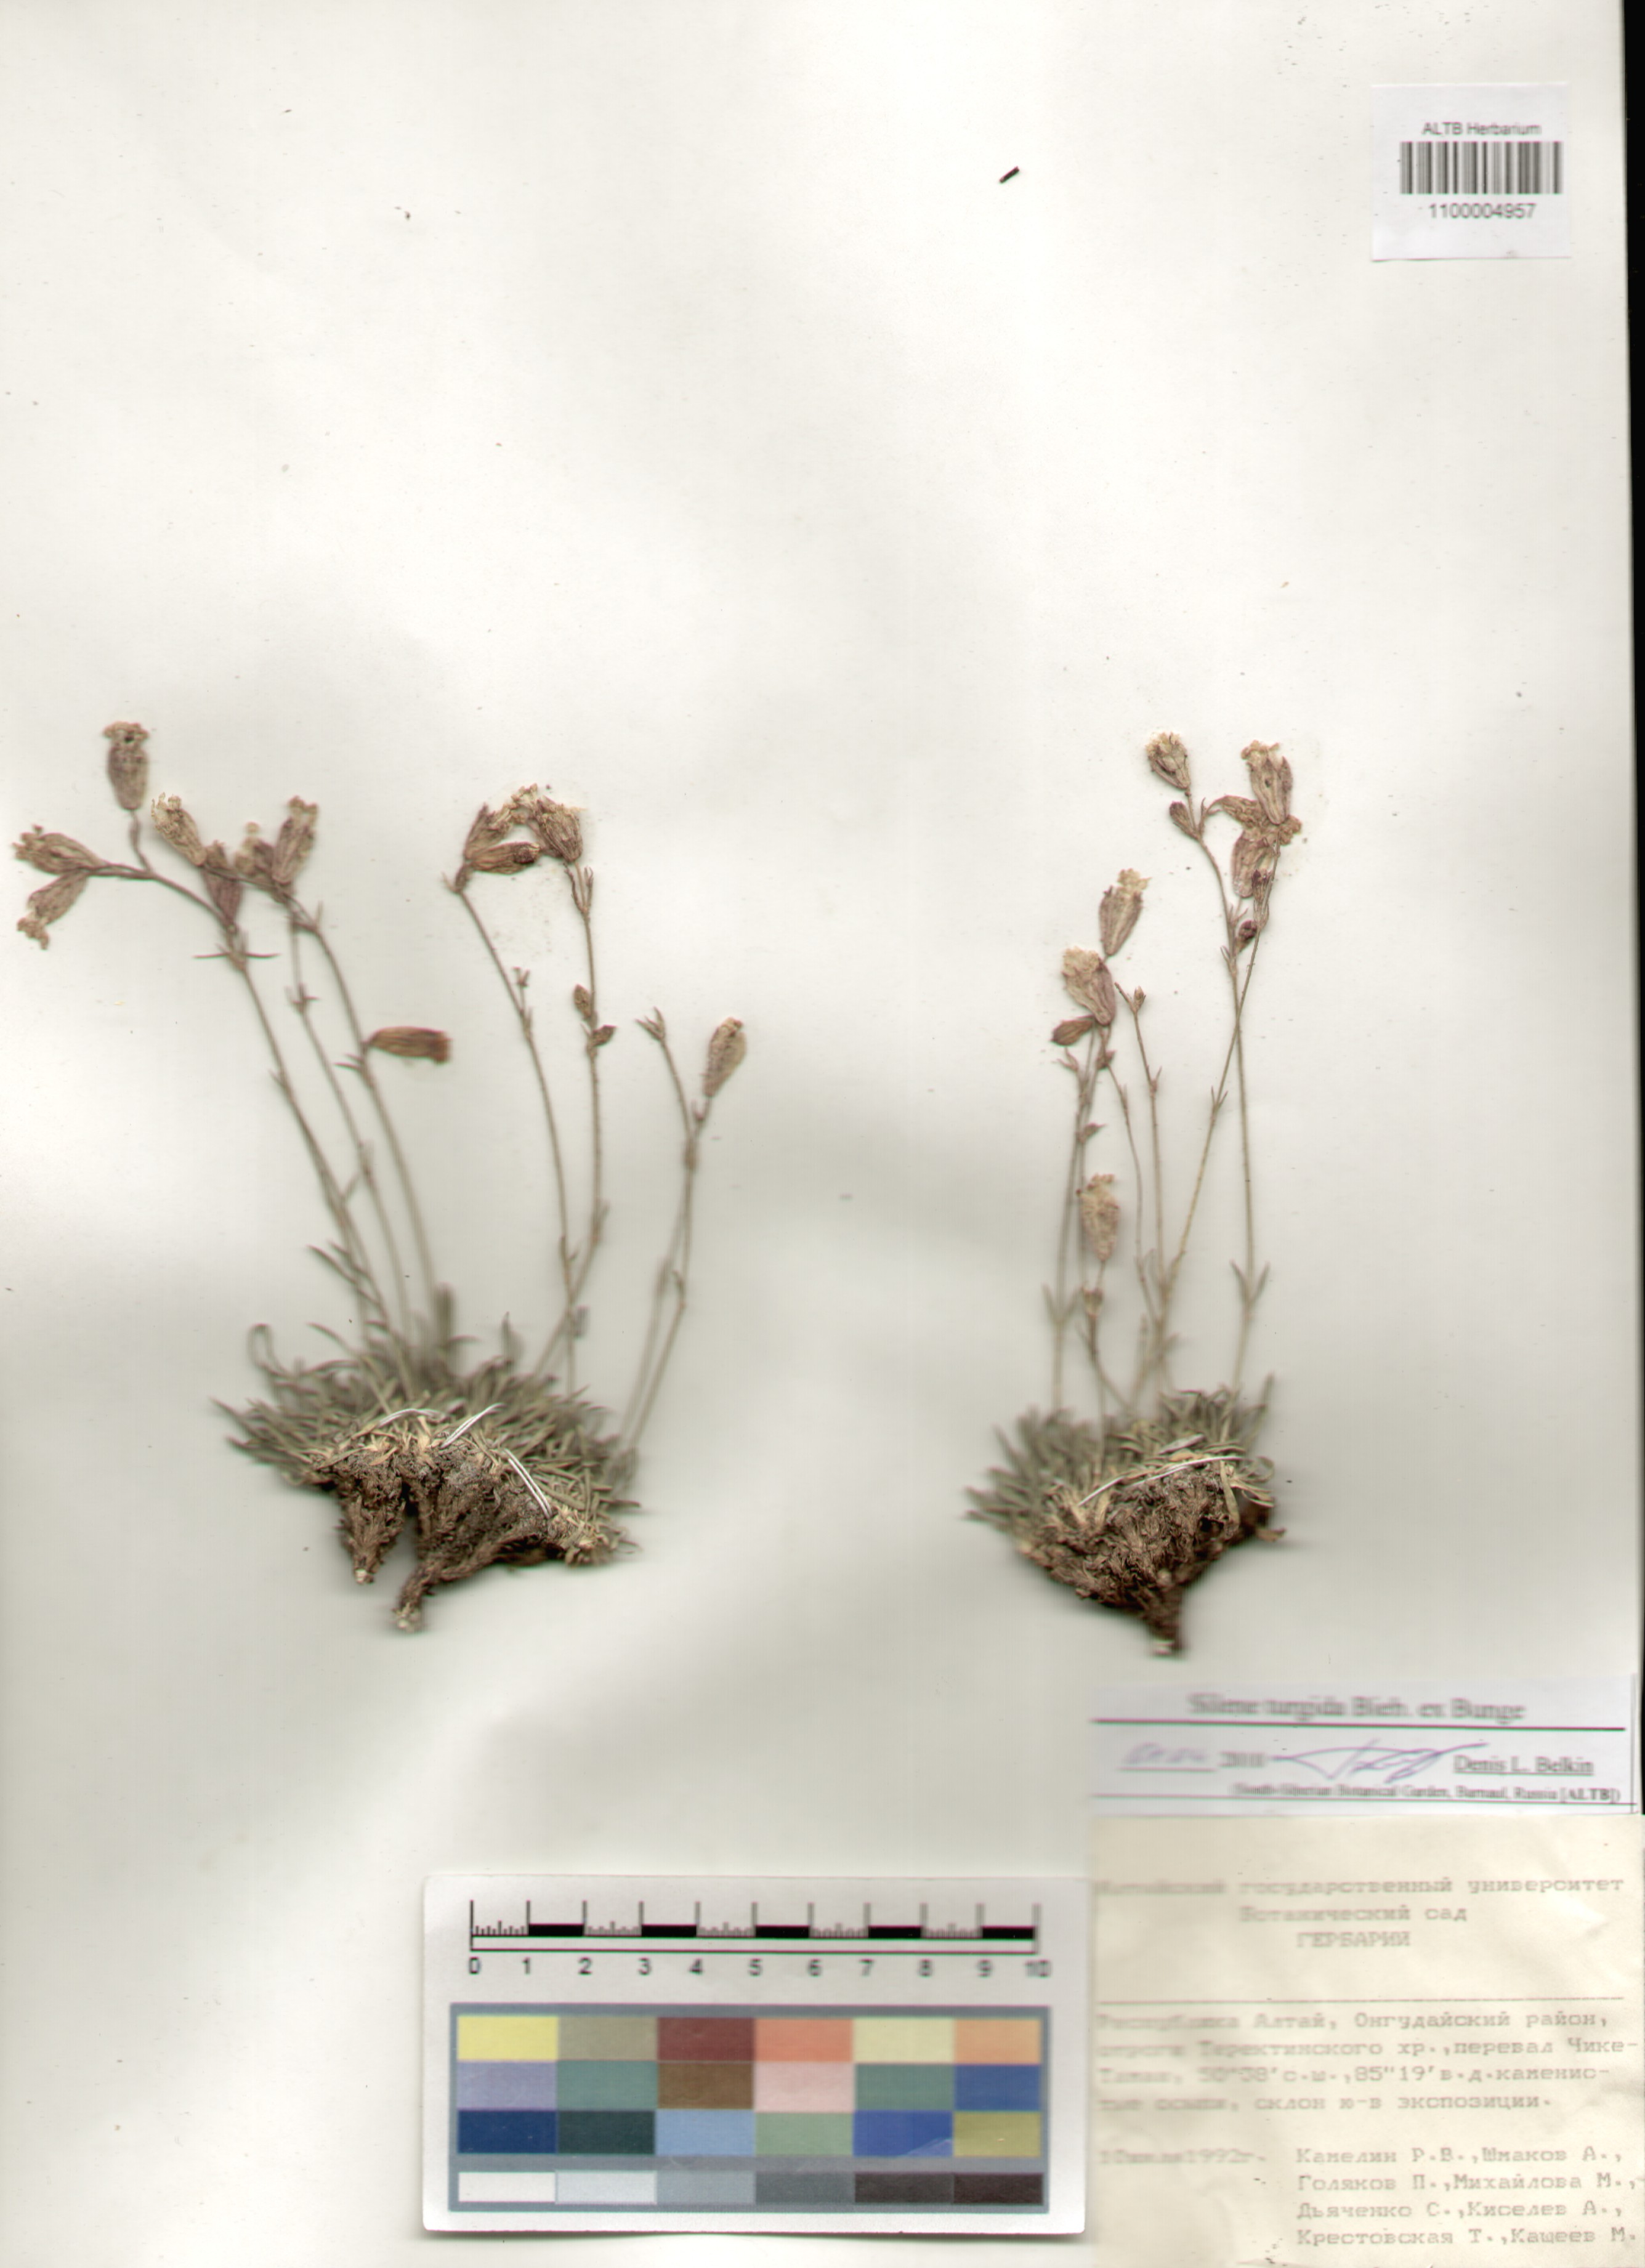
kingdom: Plantae
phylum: Tracheophyta
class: Magnoliopsida
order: Caryophyllales
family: Caryophyllaceae
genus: Silene
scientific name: Silene turgida
